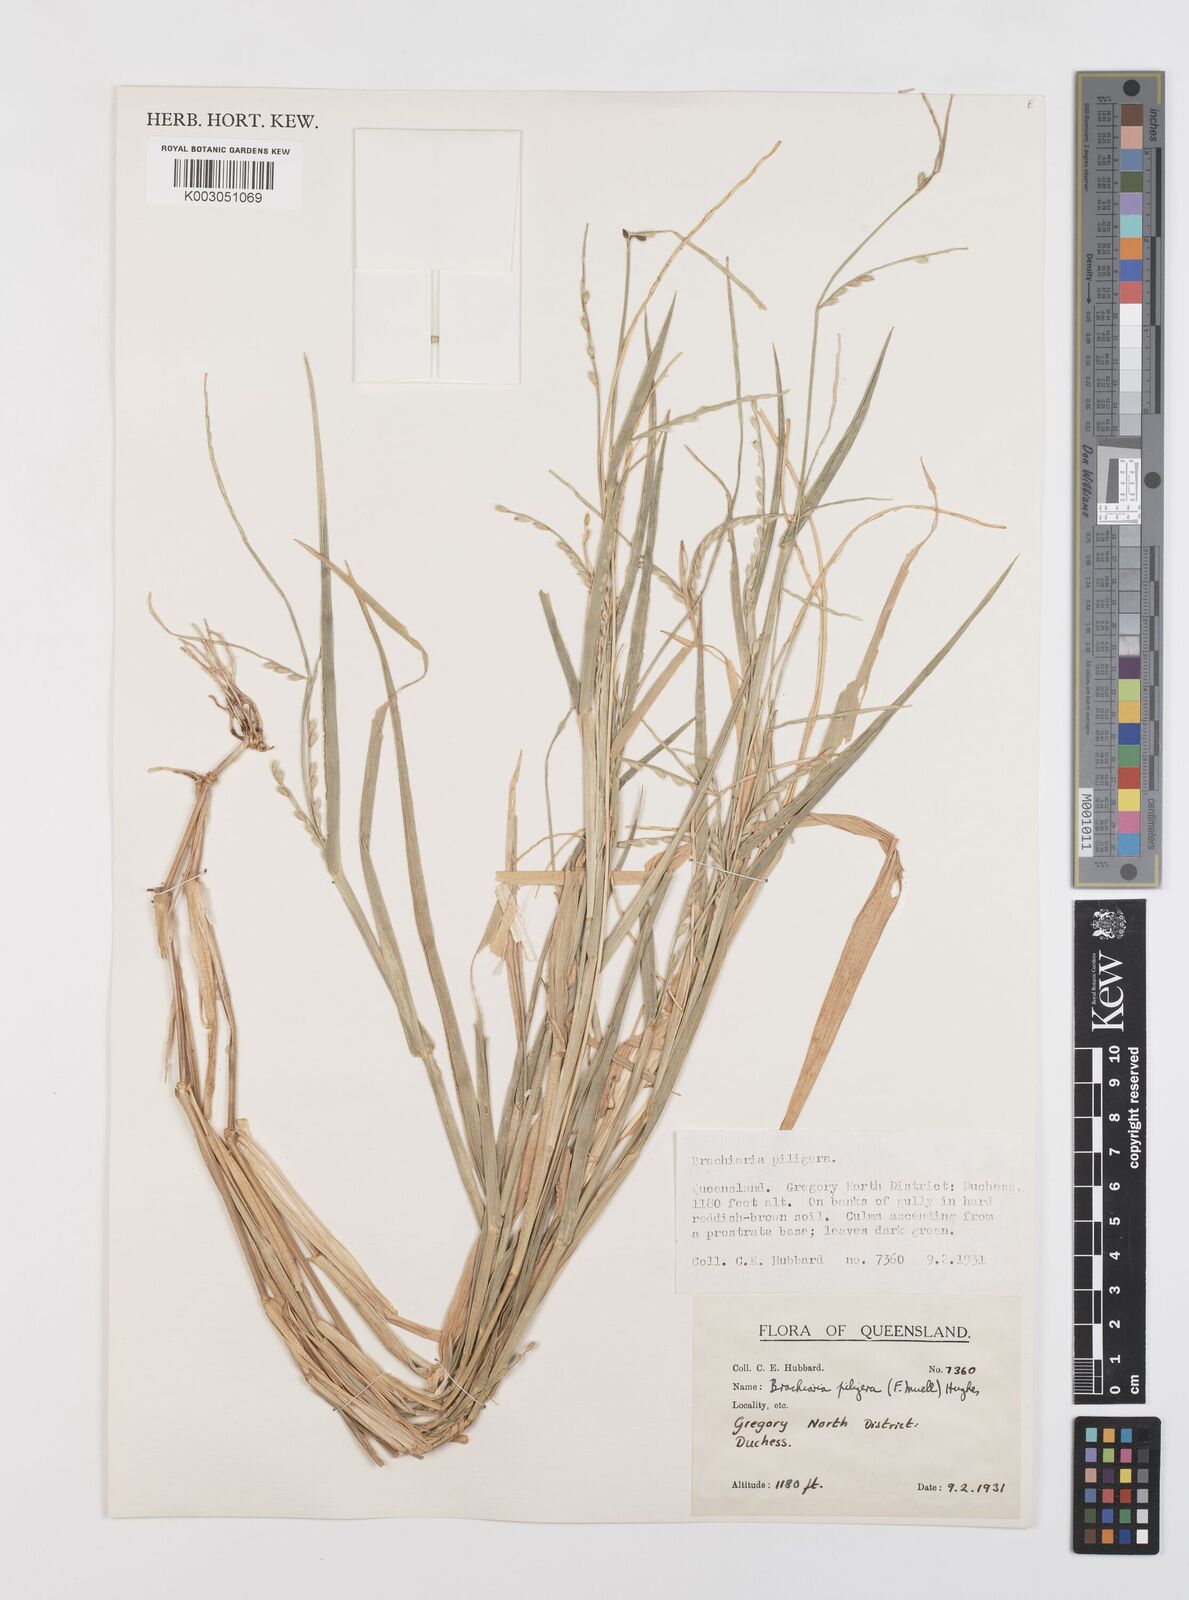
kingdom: Plantae
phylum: Tracheophyta
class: Liliopsida
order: Poales
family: Poaceae
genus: Urochloa
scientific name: Urochloa piligera
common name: Wattle signalgrass
